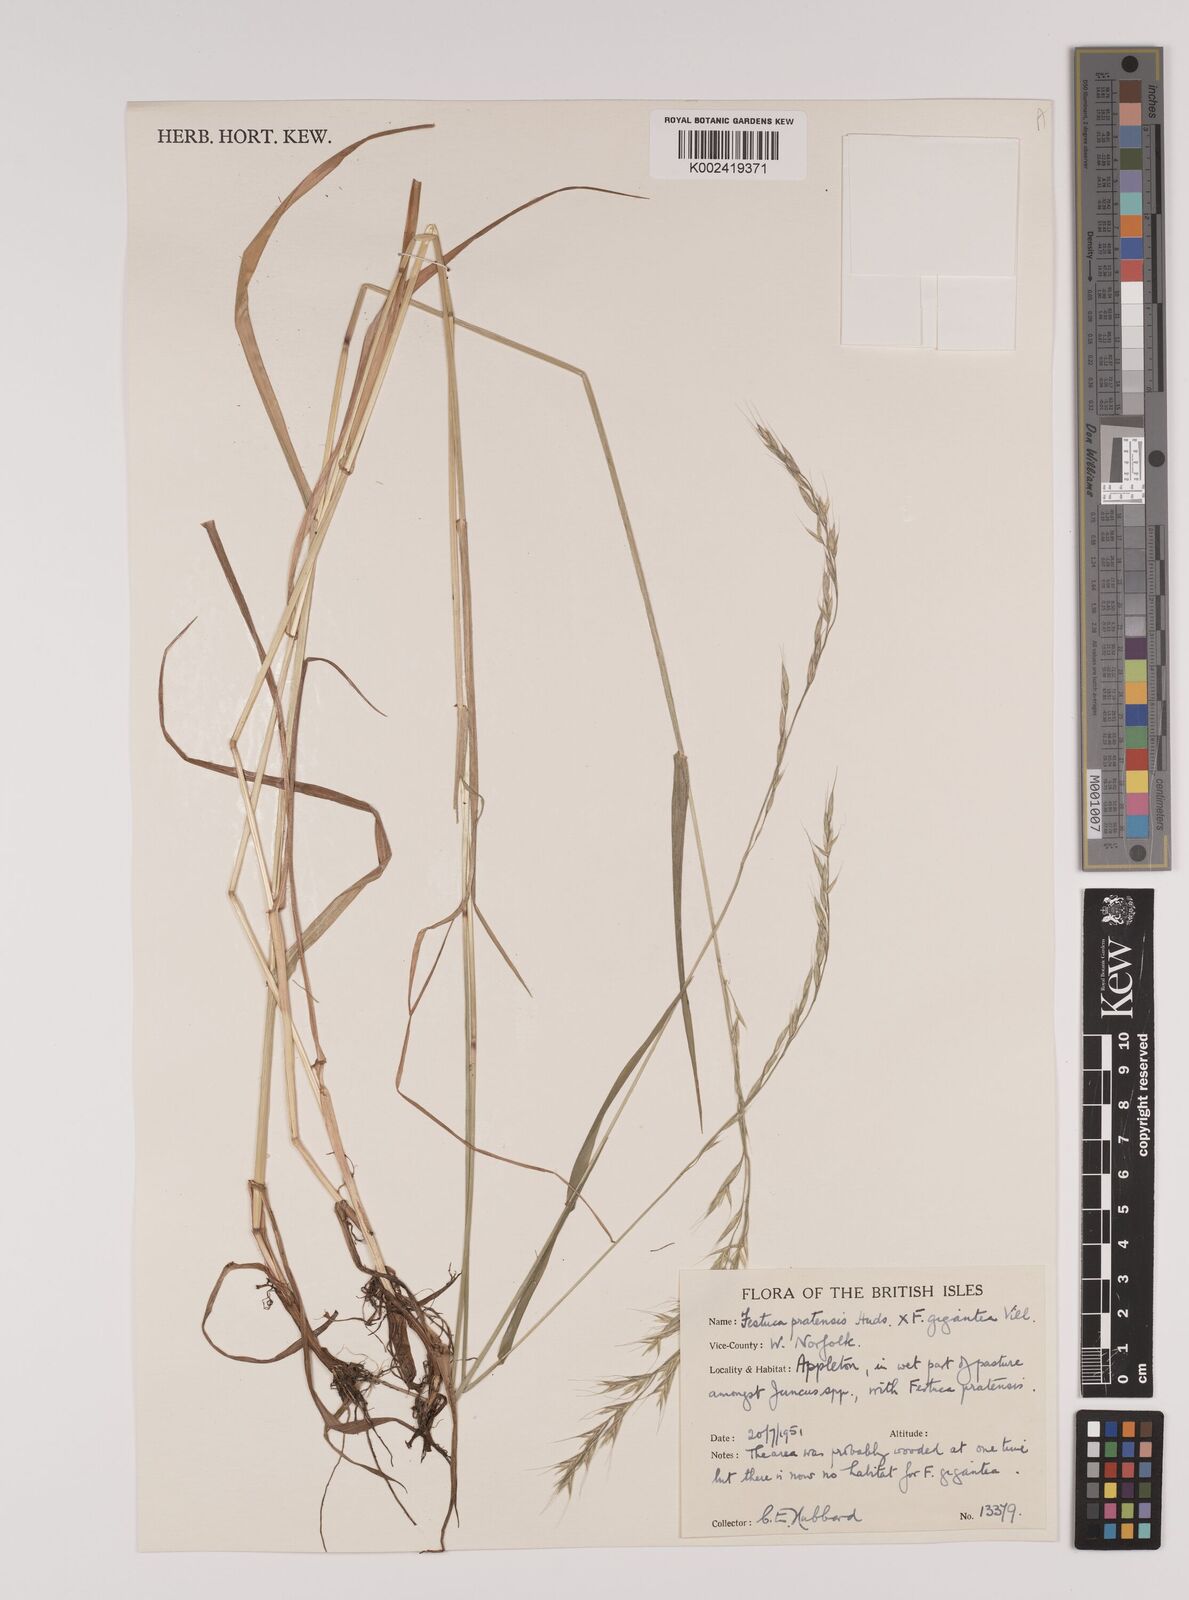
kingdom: Plantae
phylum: Tracheophyta
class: Liliopsida
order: Poales
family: Poaceae
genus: Lolium
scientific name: Lolium giganteum
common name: Giant fescue
